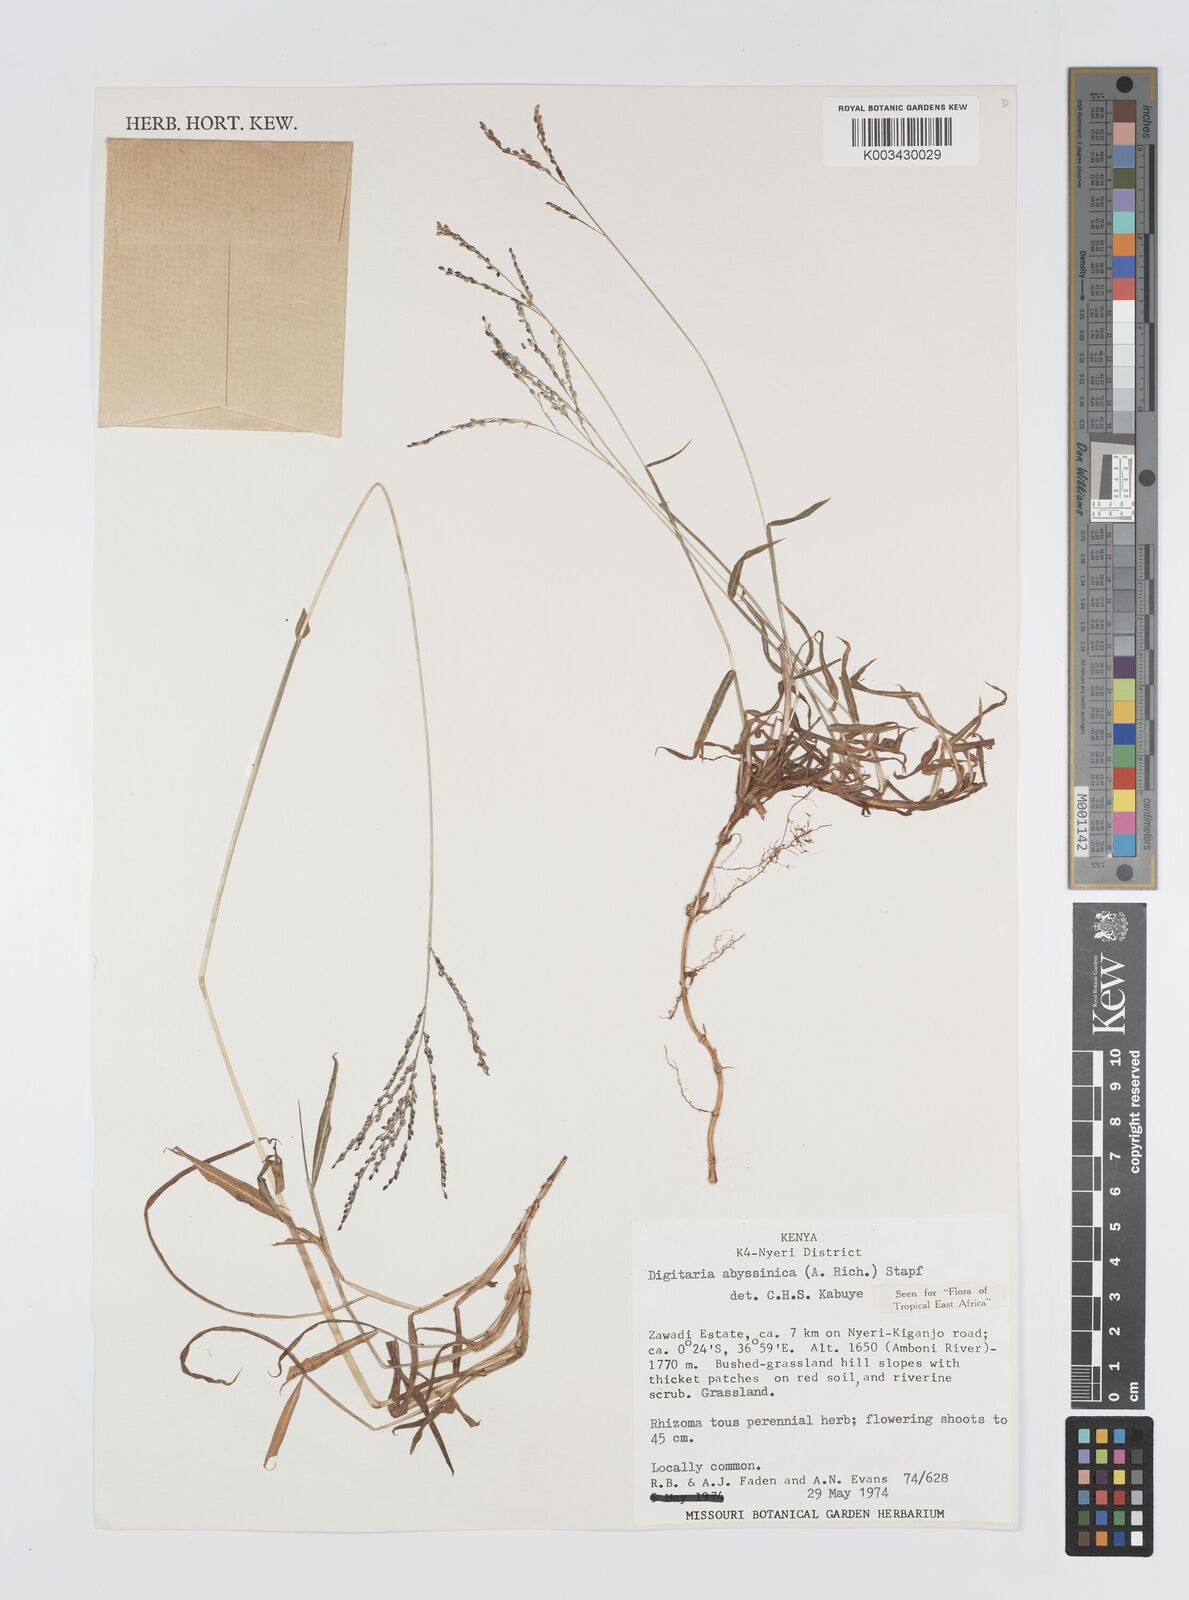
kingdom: Plantae
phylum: Tracheophyta
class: Liliopsida
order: Poales
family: Poaceae
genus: Digitaria
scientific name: Digitaria abyssinica
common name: African couchgrass
